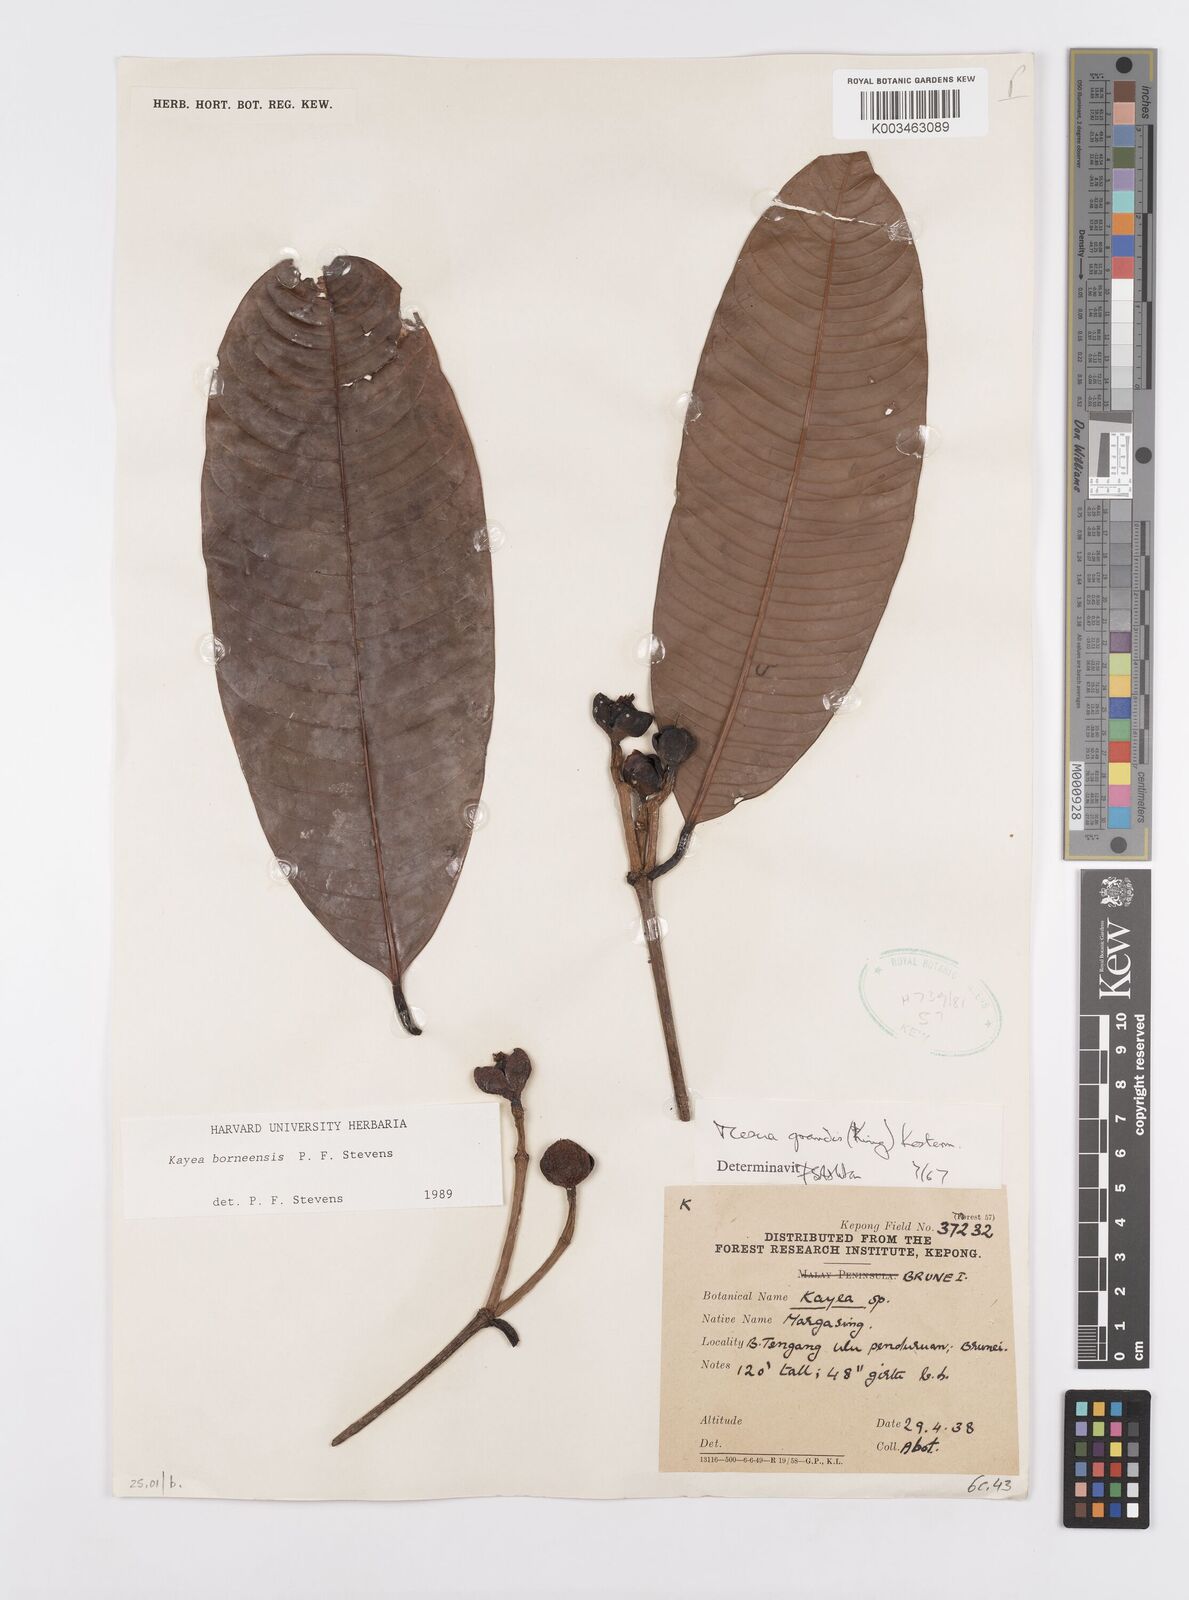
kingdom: Plantae
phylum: Tracheophyta
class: Magnoliopsida
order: Malpighiales
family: Calophyllaceae
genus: Kayea
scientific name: Kayea borneensis
